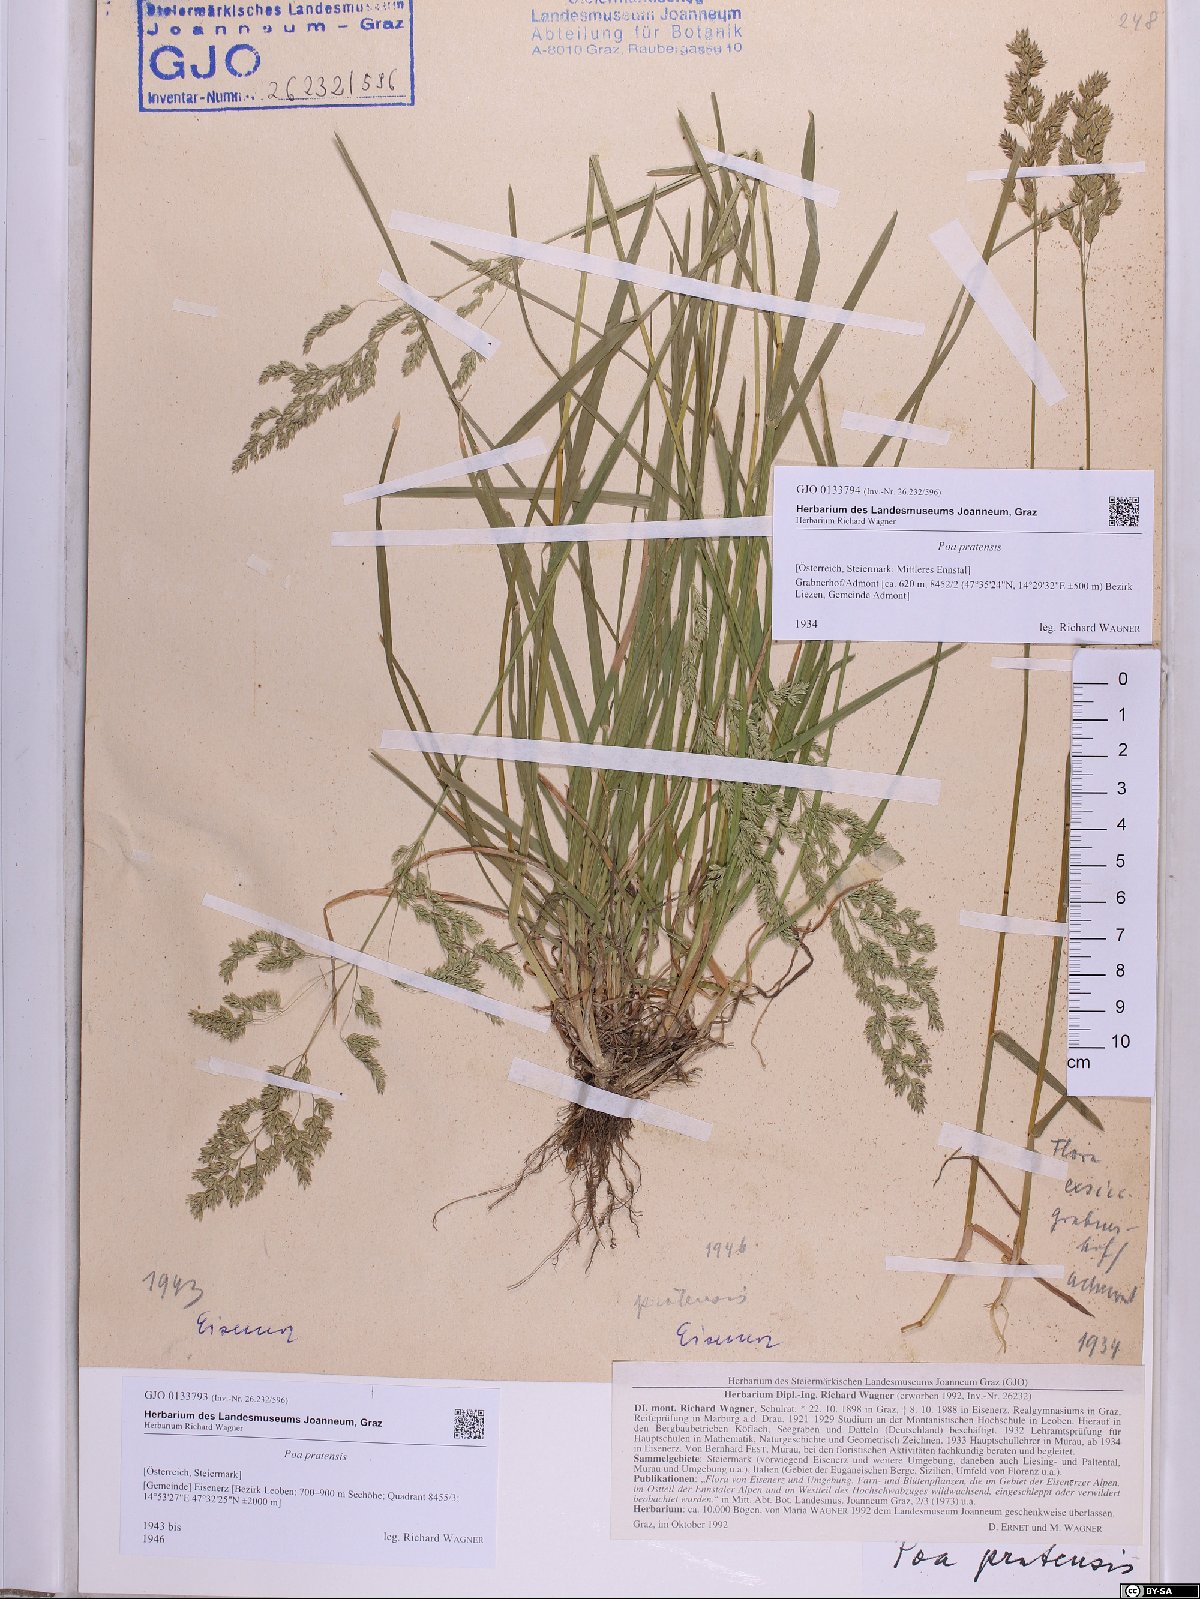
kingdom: Plantae
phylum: Tracheophyta
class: Liliopsida
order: Poales
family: Poaceae
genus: Poa
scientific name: Poa pratensis
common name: Kentucky bluegrass
